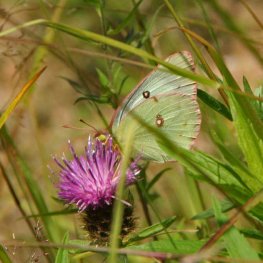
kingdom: Animalia
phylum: Arthropoda
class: Insecta
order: Lepidoptera
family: Pieridae
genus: Colias
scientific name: Colias philodice
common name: Clouded Sulphur
